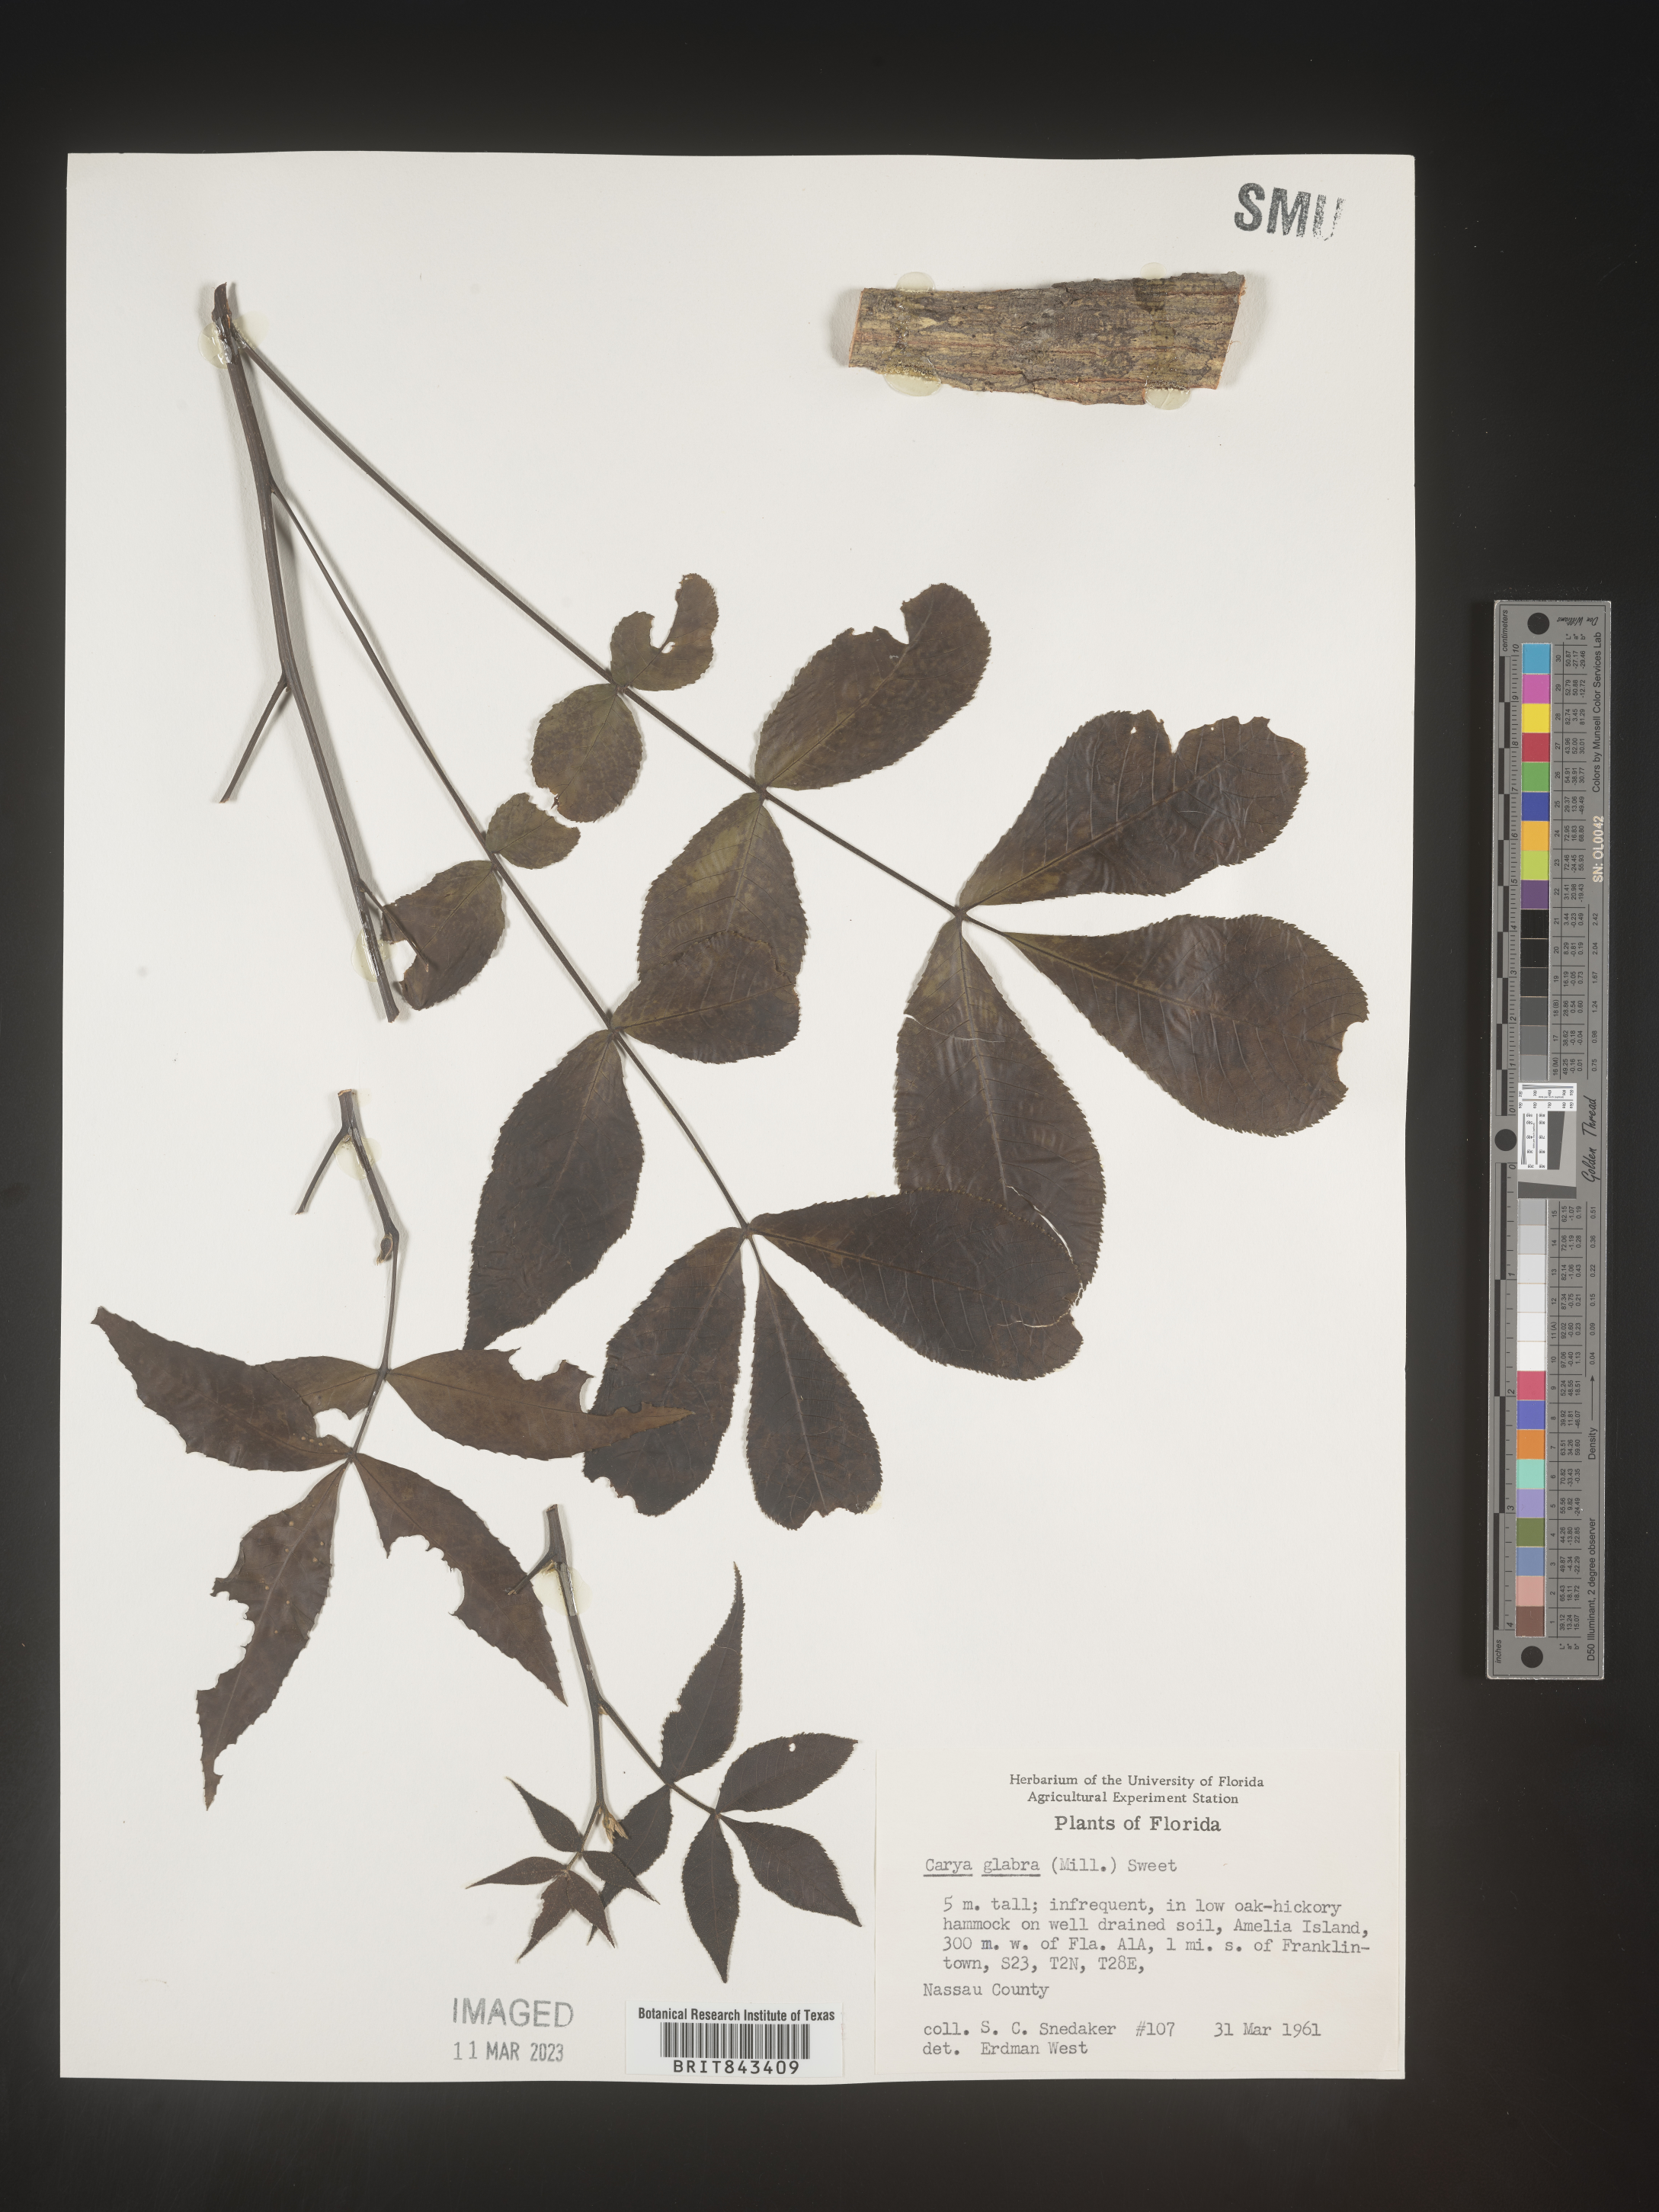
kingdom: Plantae
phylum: Tracheophyta
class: Magnoliopsida
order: Fagales
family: Juglandaceae
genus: Carya
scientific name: Carya glabra
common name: Pignut hickory
